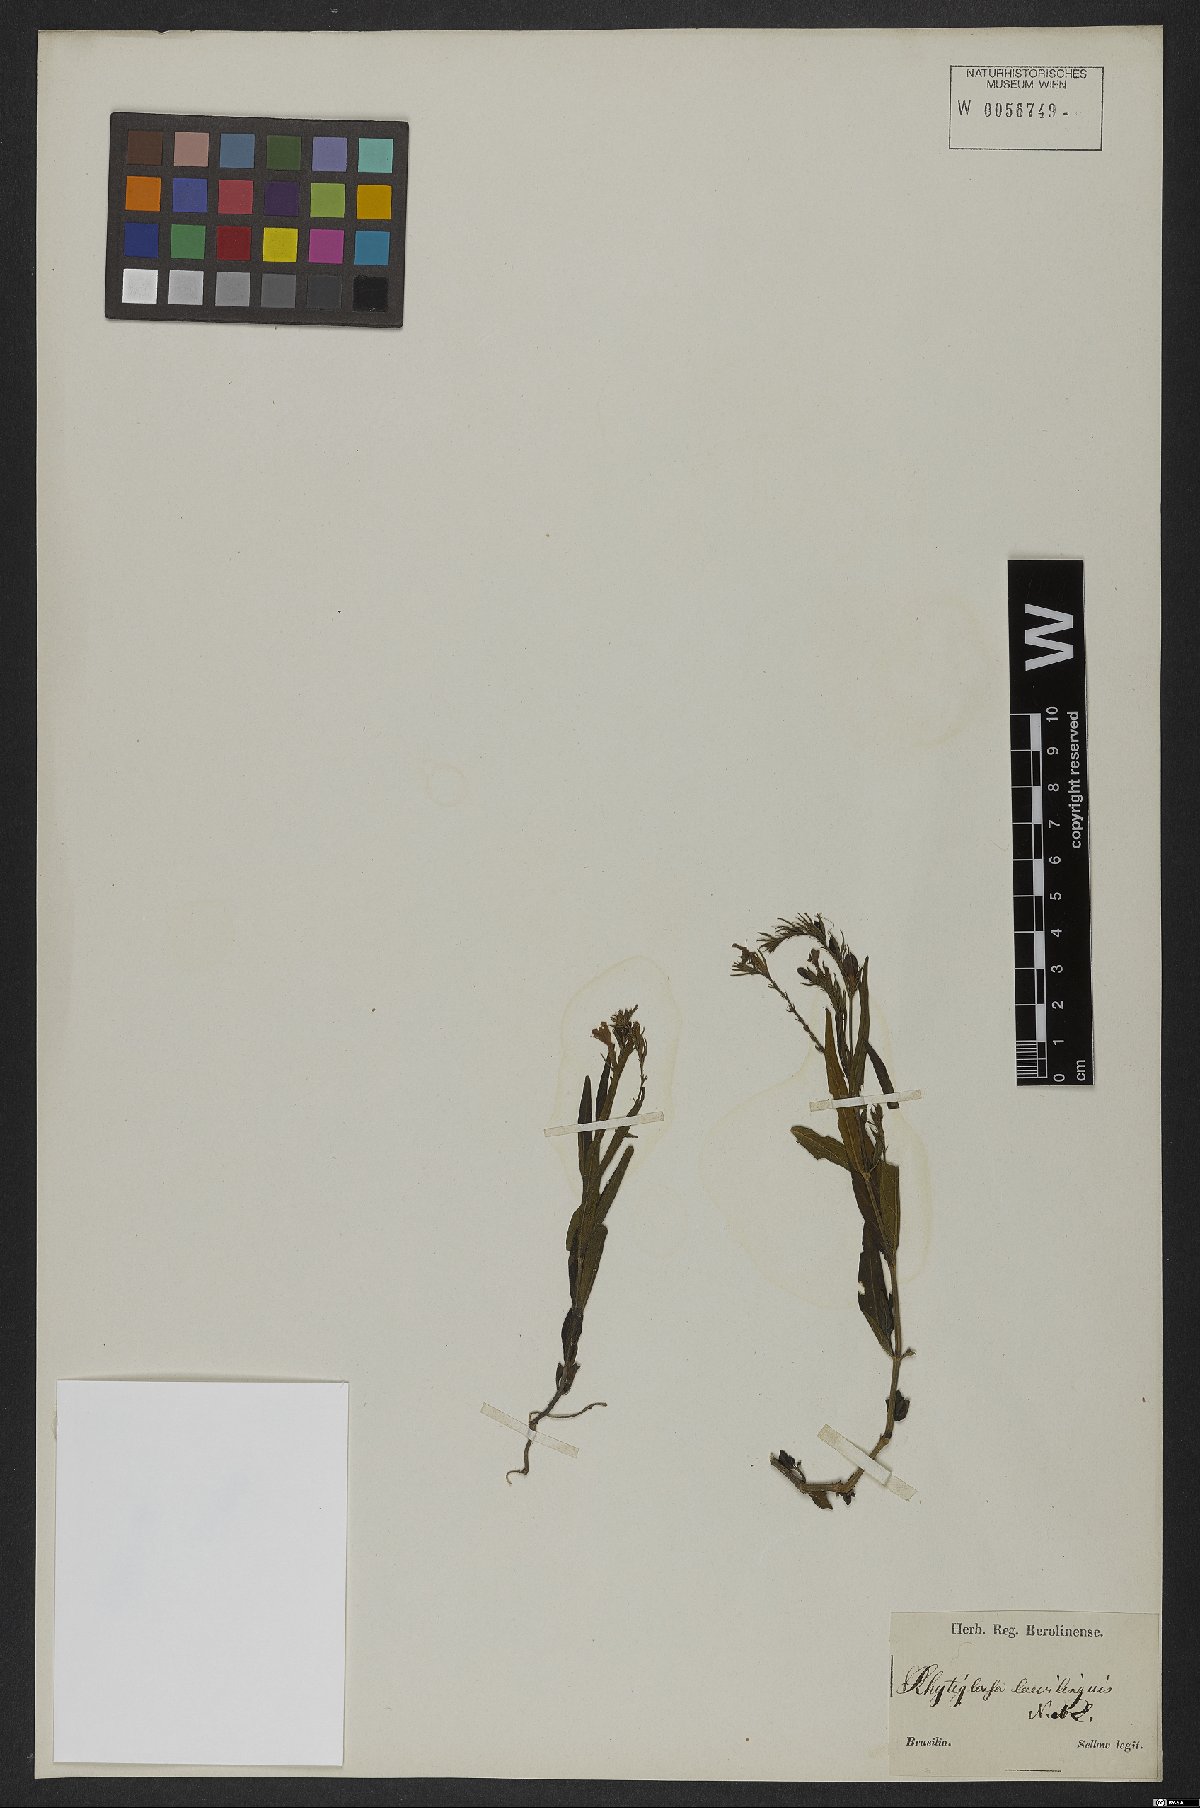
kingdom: Plantae
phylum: Tracheophyta
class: Magnoliopsida
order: Lamiales
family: Acanthaceae
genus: Dianthera
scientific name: Dianthera laevilinguis
